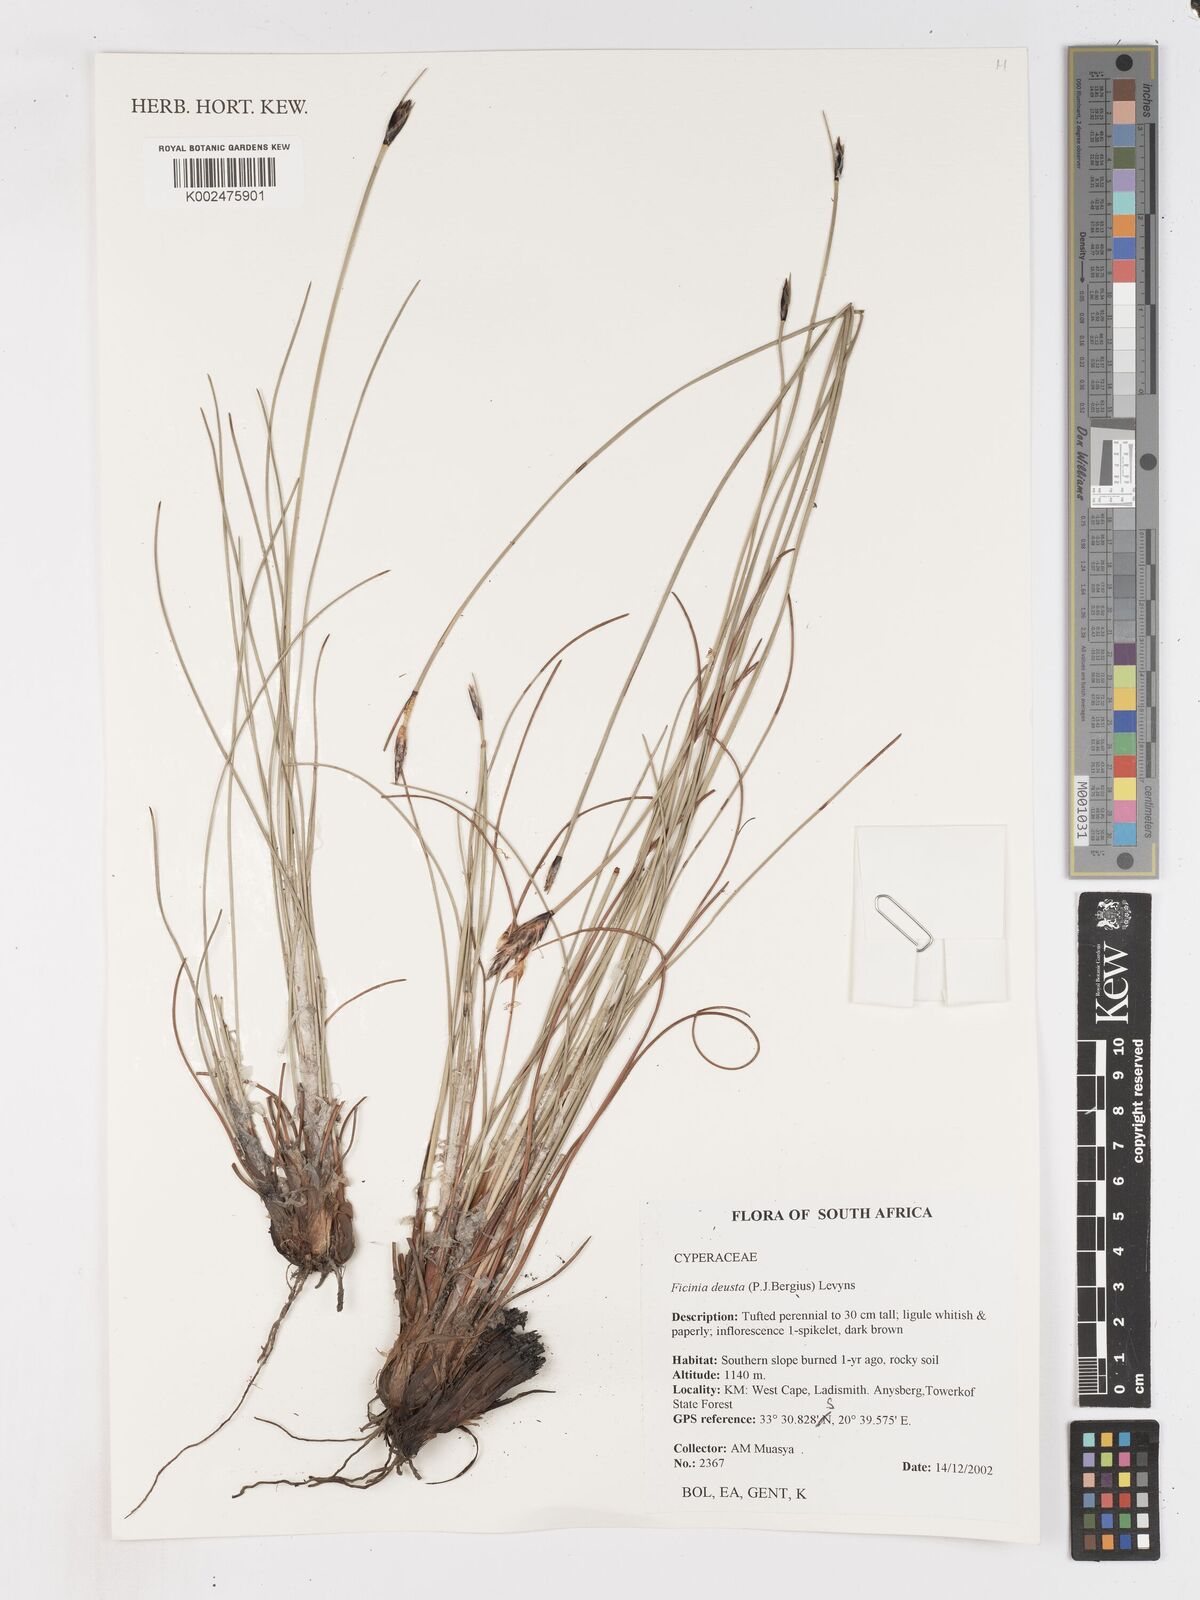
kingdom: Plantae
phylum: Tracheophyta
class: Liliopsida
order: Poales
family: Cyperaceae
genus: Ficinia
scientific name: Ficinia deusta
